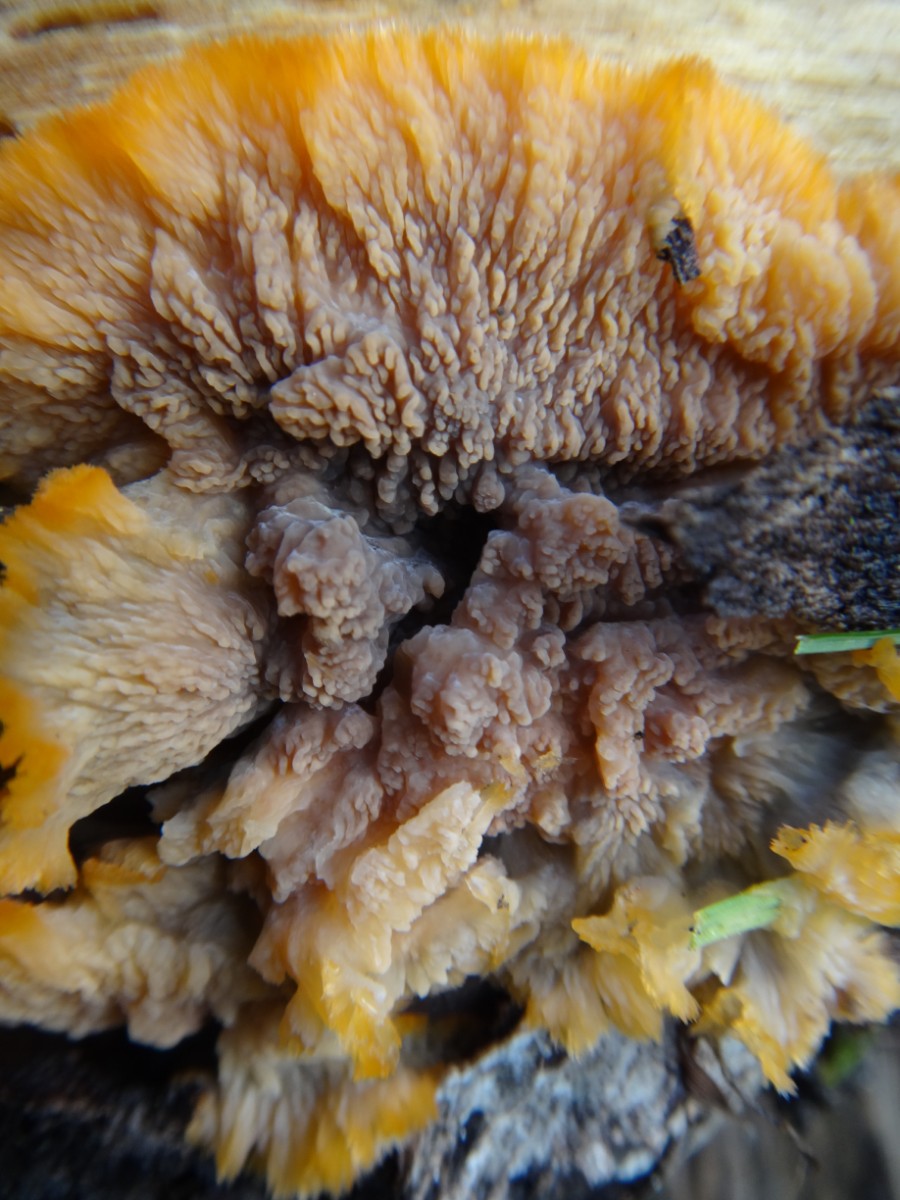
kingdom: Fungi
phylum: Basidiomycota
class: Agaricomycetes
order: Polyporales
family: Meruliaceae
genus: Phlebia
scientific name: Phlebia radiata
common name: stråle-åresvamp
